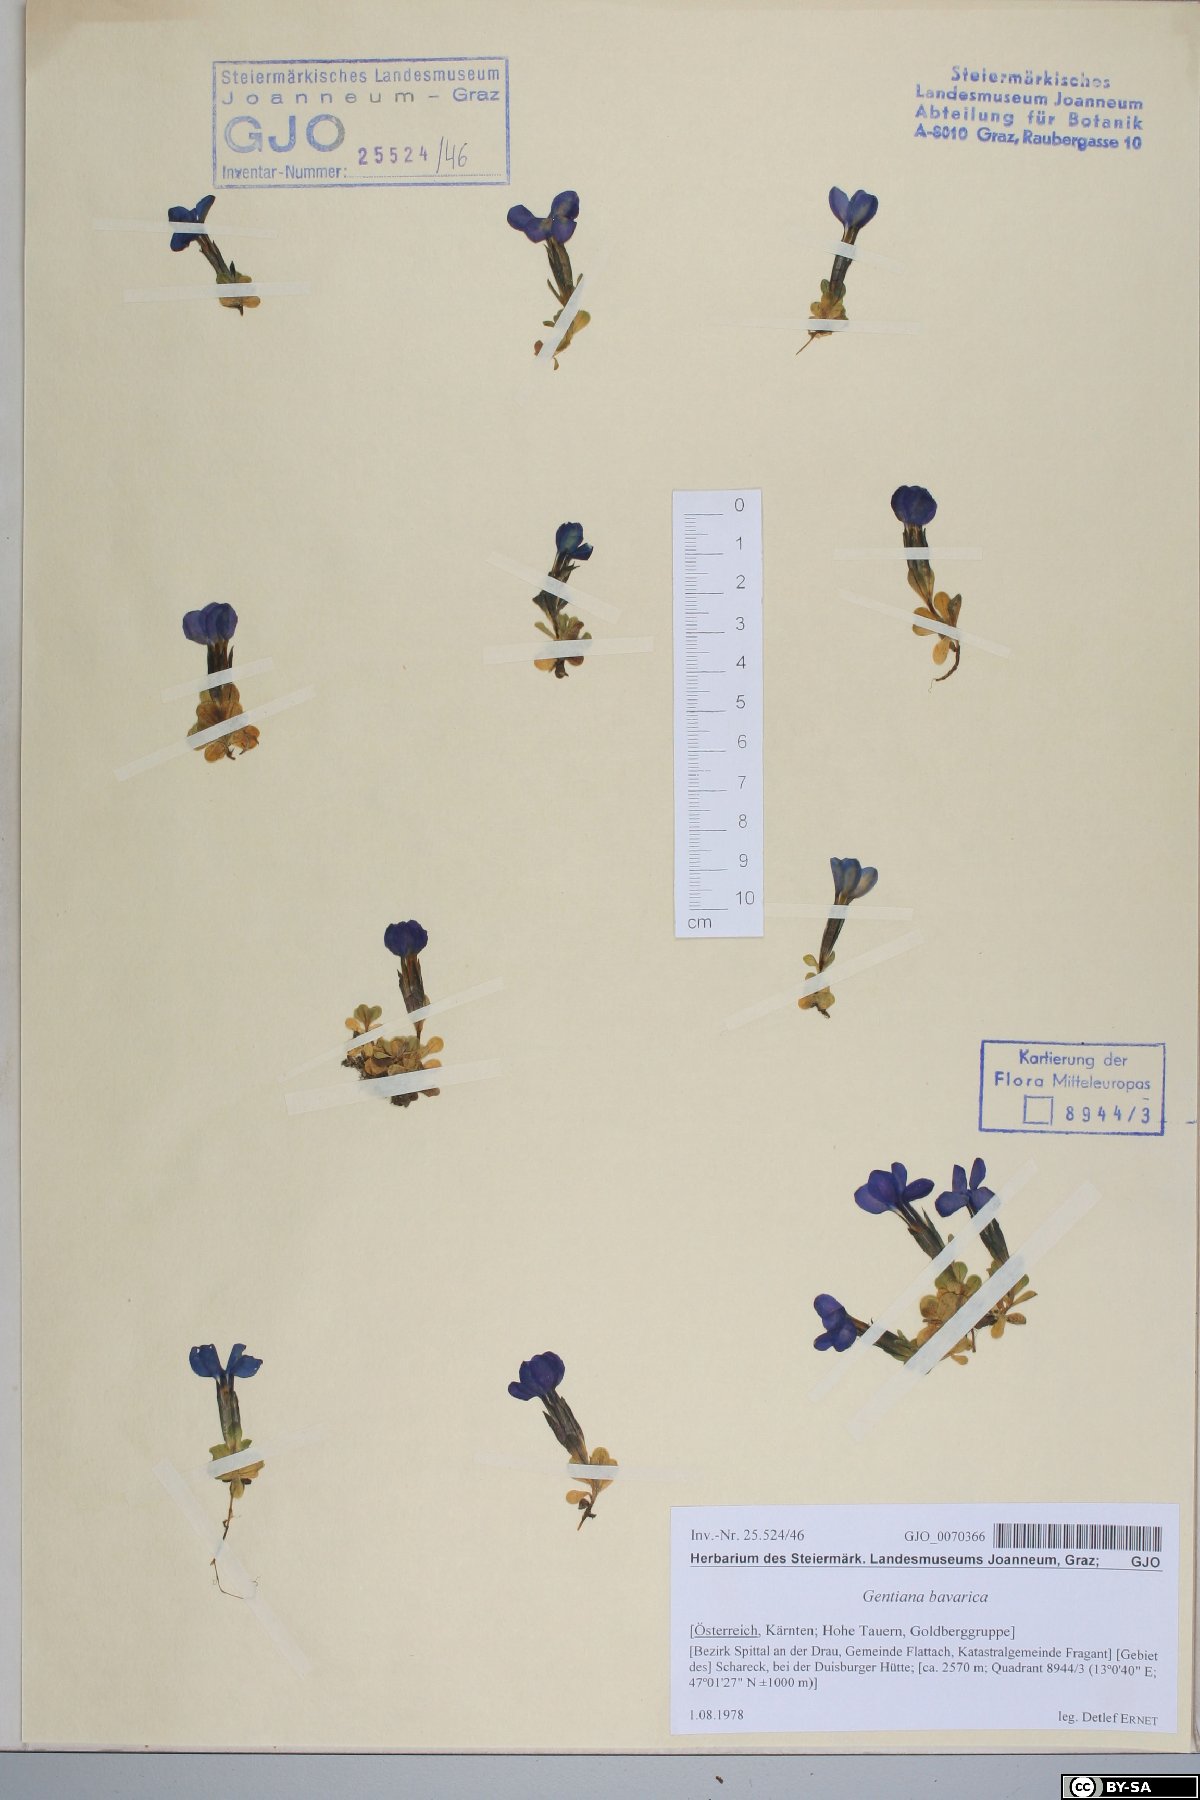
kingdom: Plantae
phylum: Tracheophyta
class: Magnoliopsida
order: Gentianales
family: Gentianaceae
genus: Gentiana
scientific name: Gentiana bavarica
